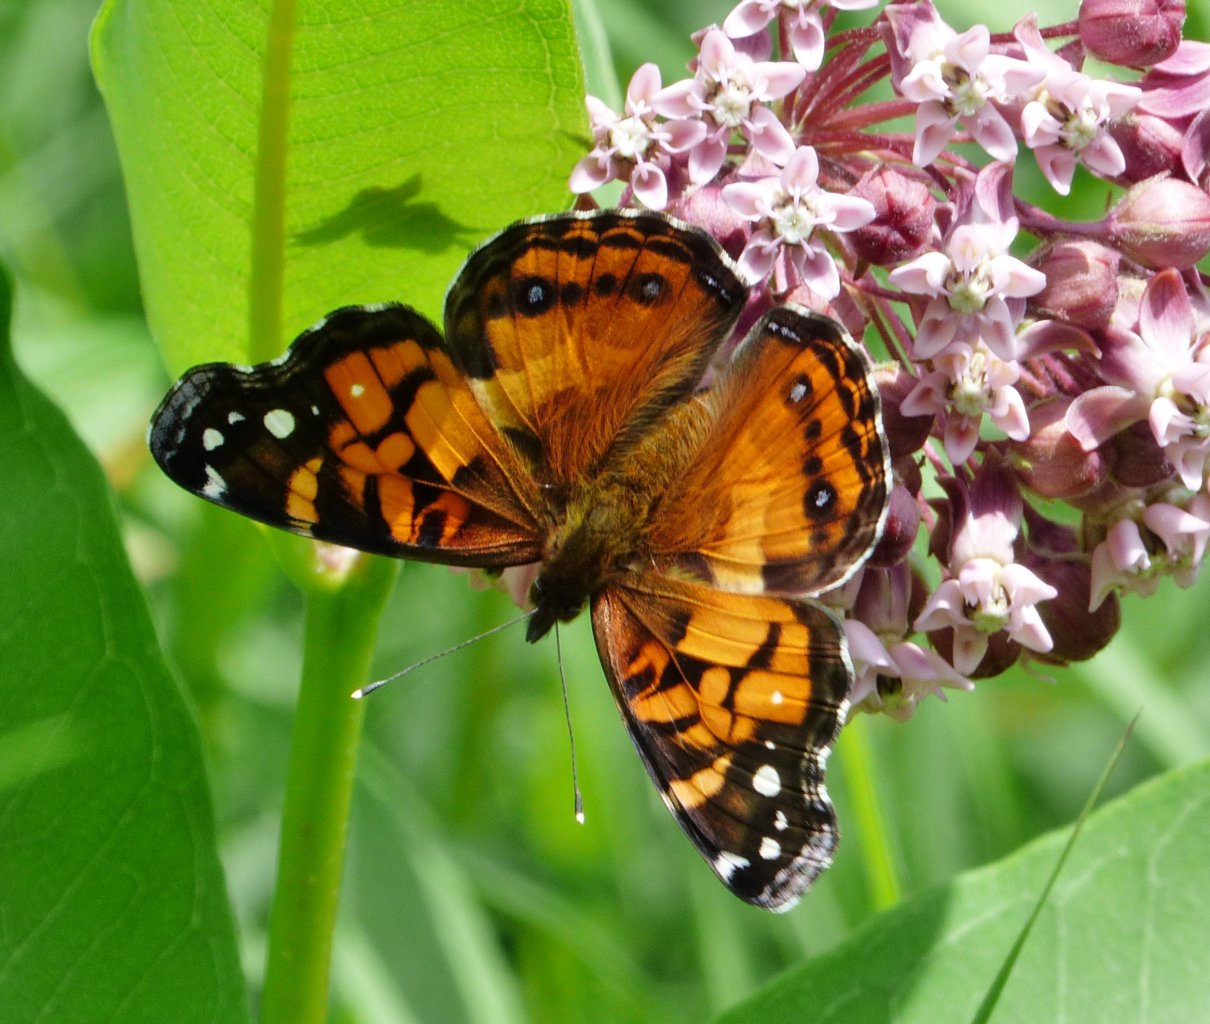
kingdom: Animalia
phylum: Arthropoda
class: Insecta
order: Lepidoptera
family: Nymphalidae
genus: Vanessa
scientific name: Vanessa virginiensis
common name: American Lady
